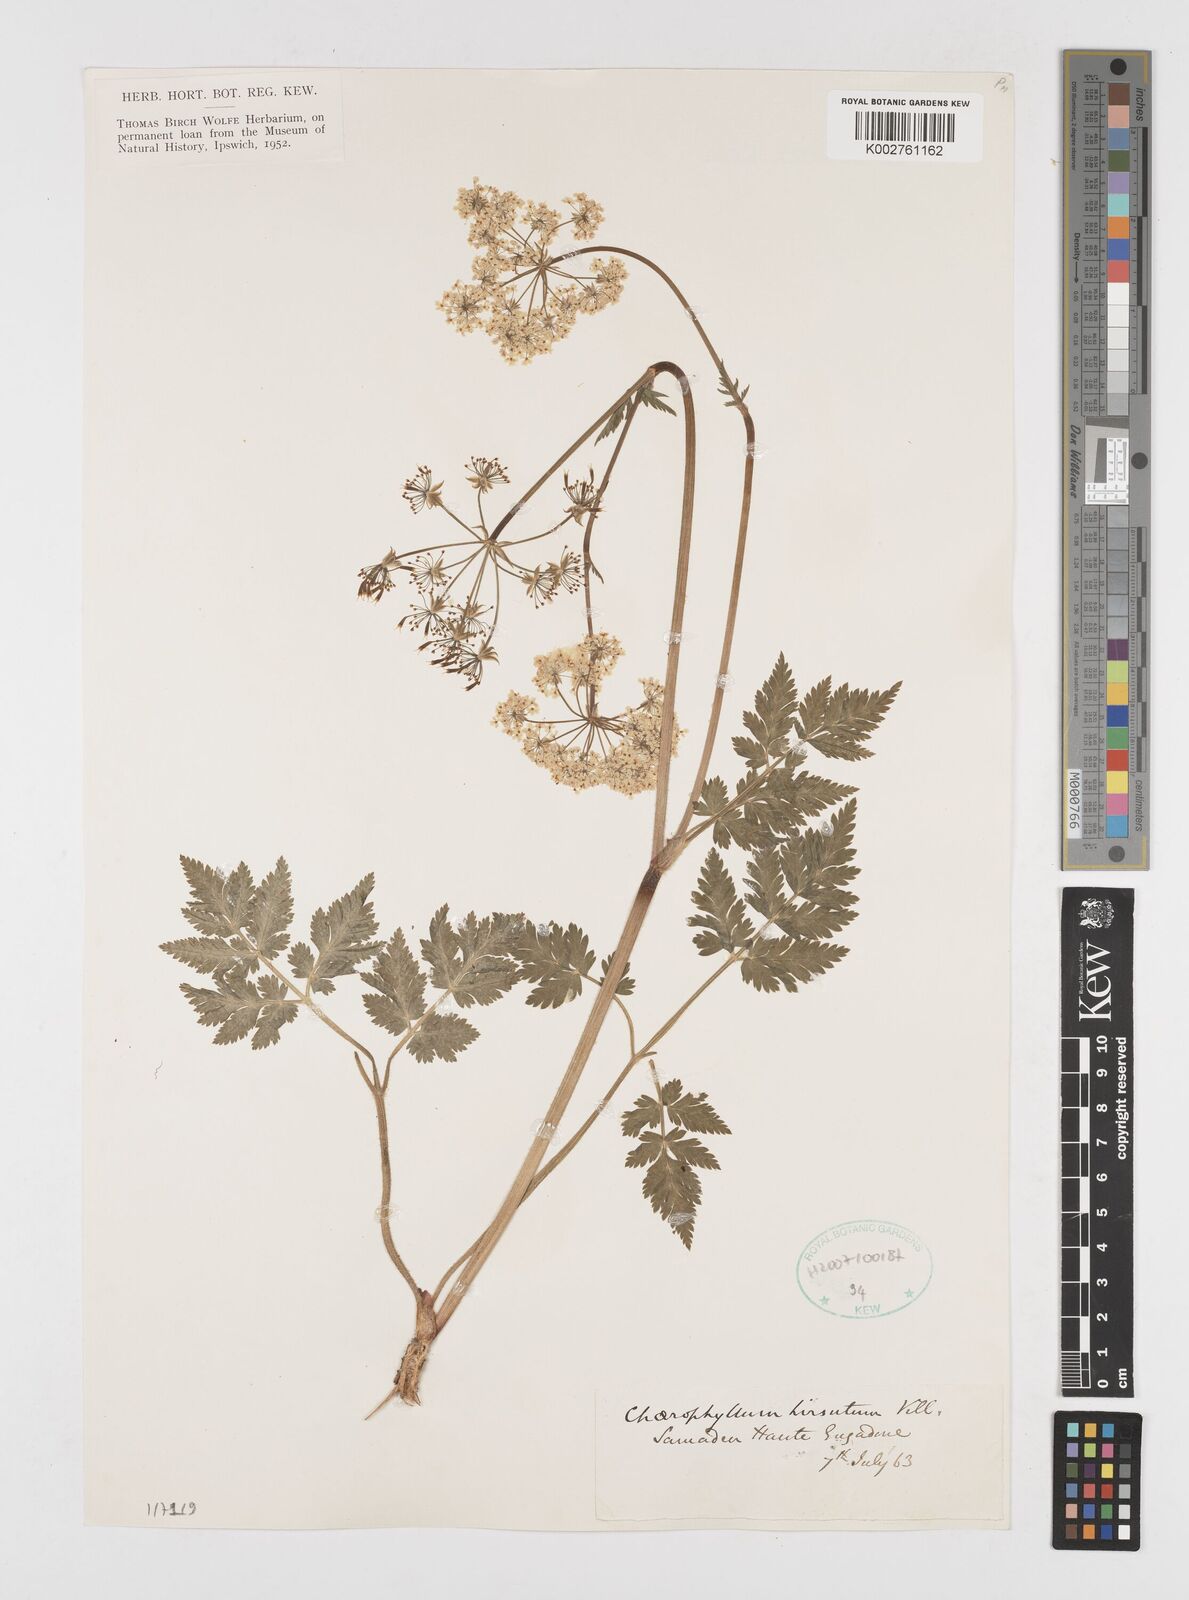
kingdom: Plantae
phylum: Tracheophyta
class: Magnoliopsida
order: Apiales
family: Apiaceae
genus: Chaerophyllum
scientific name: Chaerophyllum hirsutum
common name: Hairy chervil
